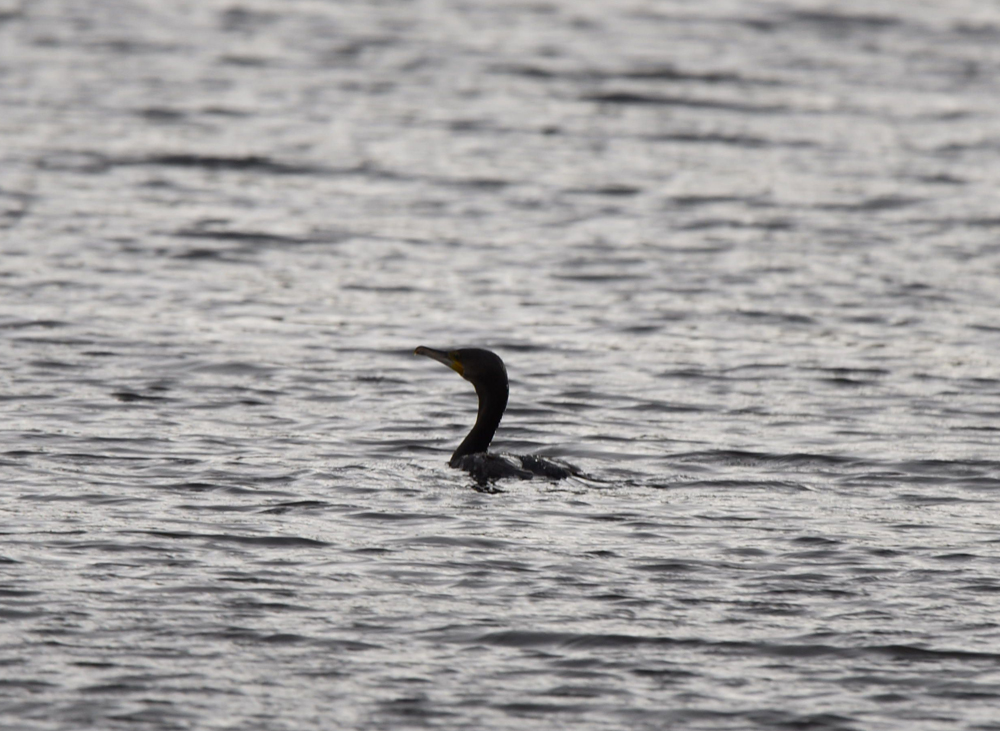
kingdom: Animalia
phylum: Chordata
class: Aves
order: Suliformes
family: Phalacrocoracidae
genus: Phalacrocorax
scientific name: Phalacrocorax carbo
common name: Great cormorant
